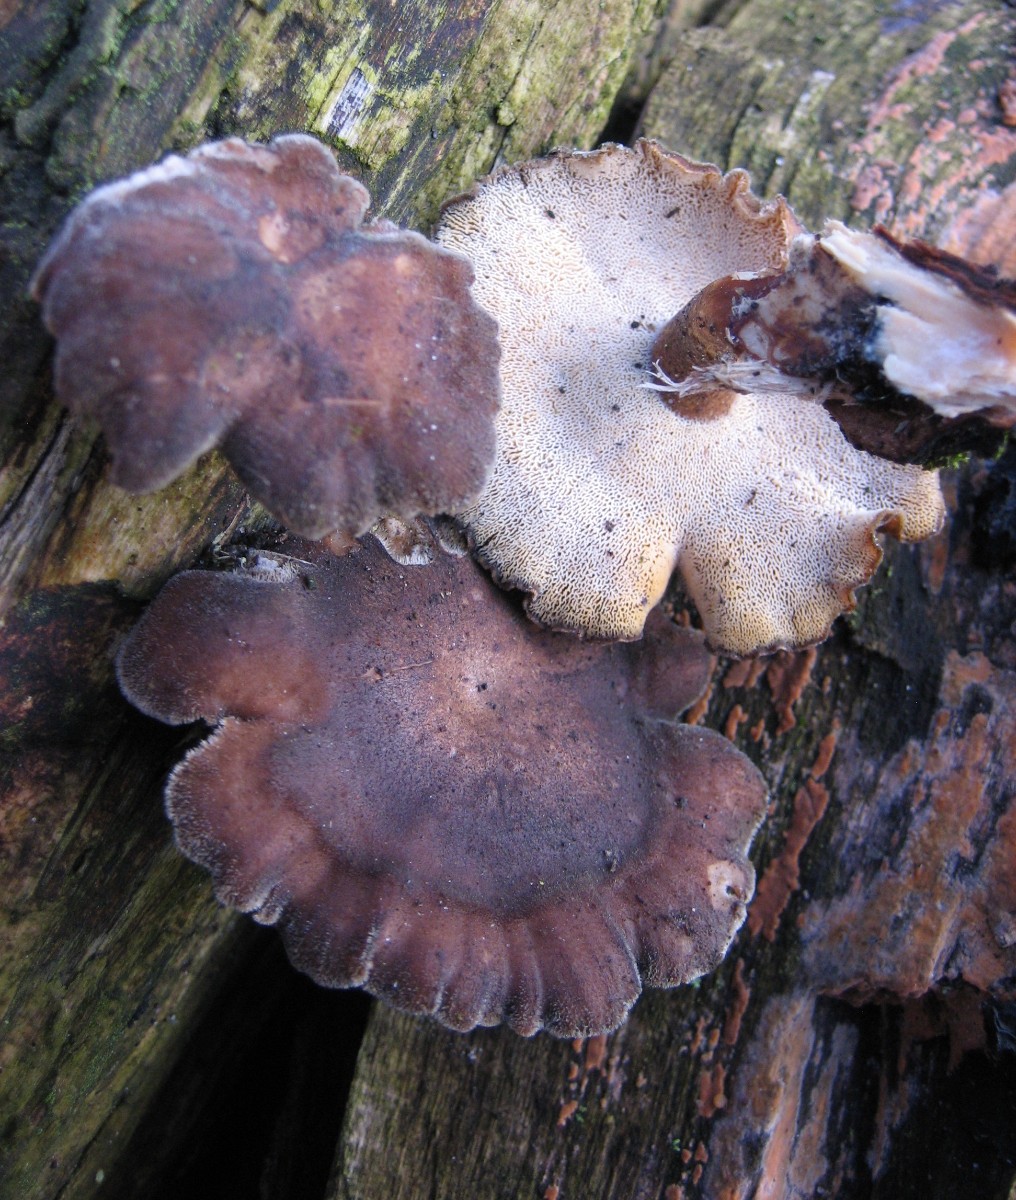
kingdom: Fungi
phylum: Basidiomycota
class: Agaricomycetes
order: Polyporales
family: Polyporaceae
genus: Lentinus
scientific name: Lentinus brumalis
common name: vinter-stilkporesvamp
